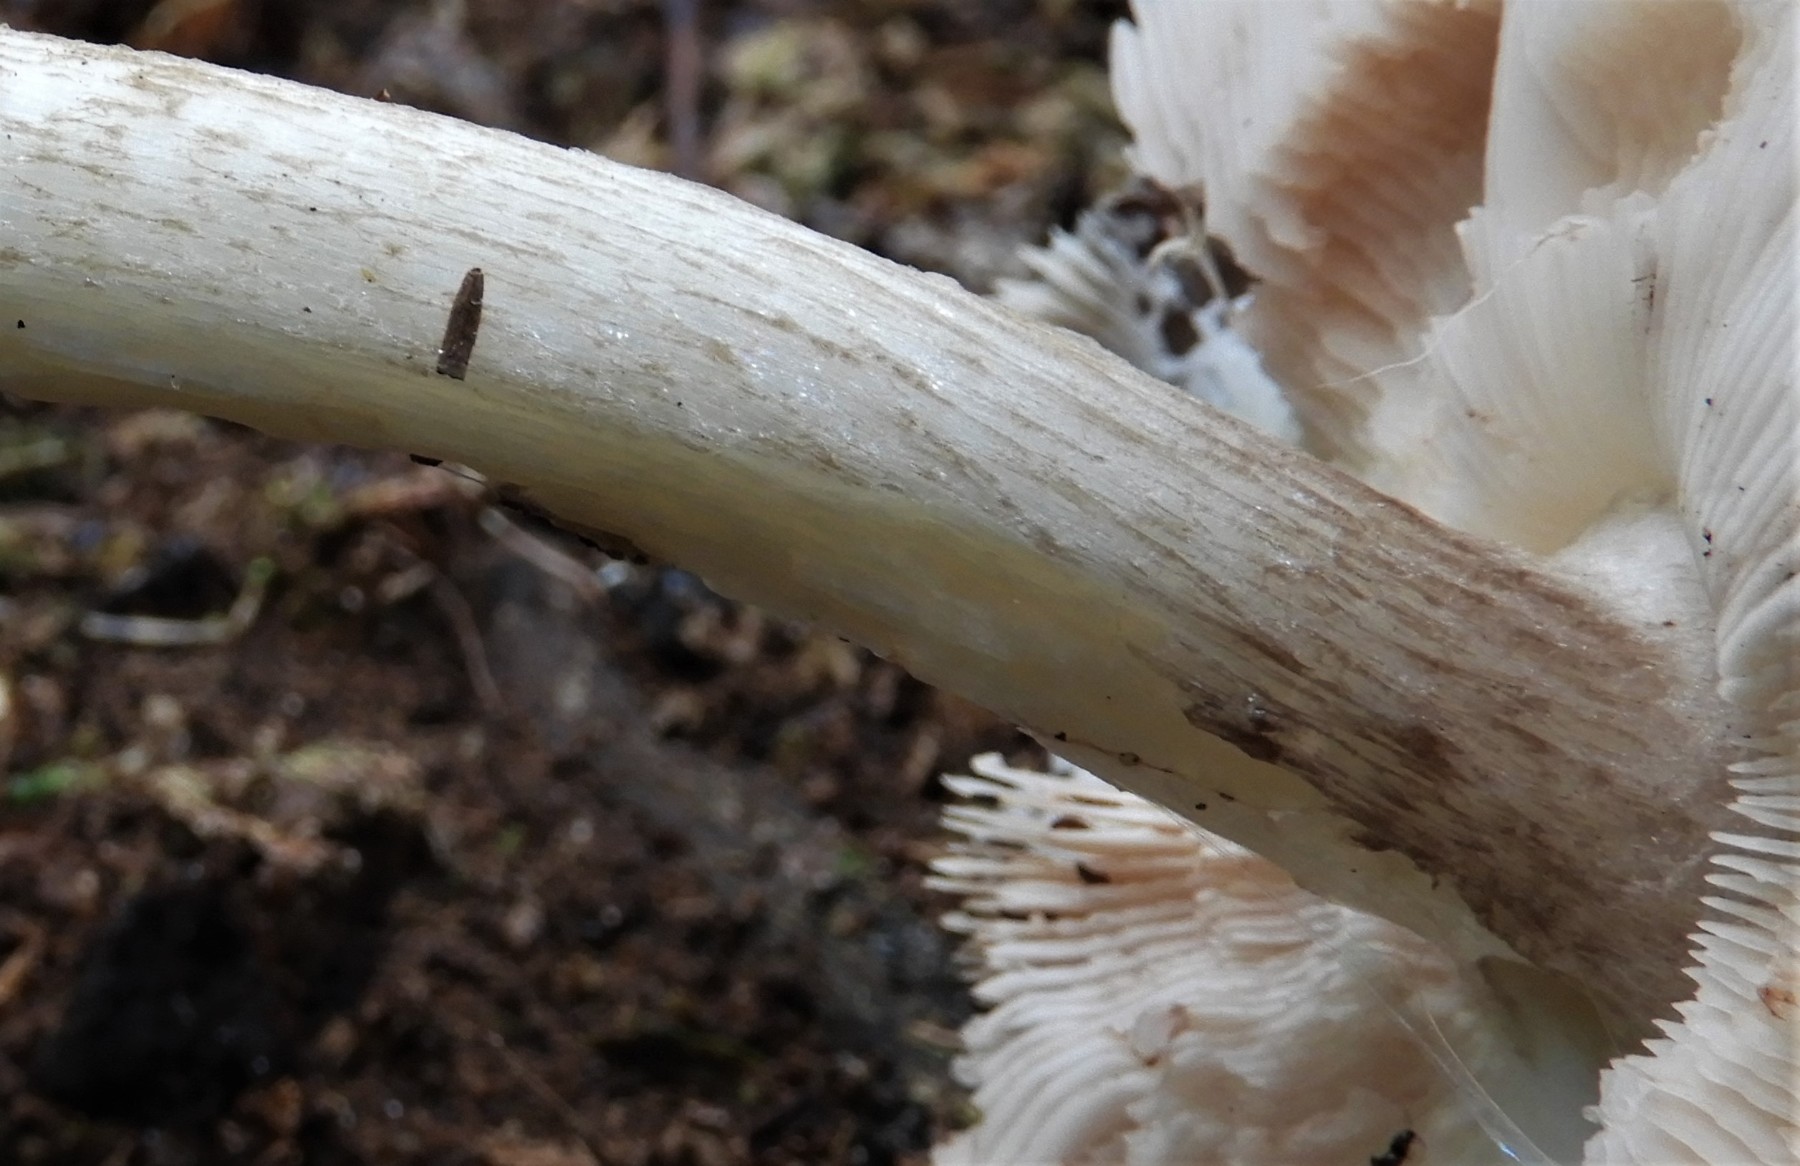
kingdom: Fungi
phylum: Basidiomycota
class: Agaricomycetes
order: Agaricales
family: Pluteaceae
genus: Pluteus
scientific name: Pluteus cervinus
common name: sodfarvet skærmhat
